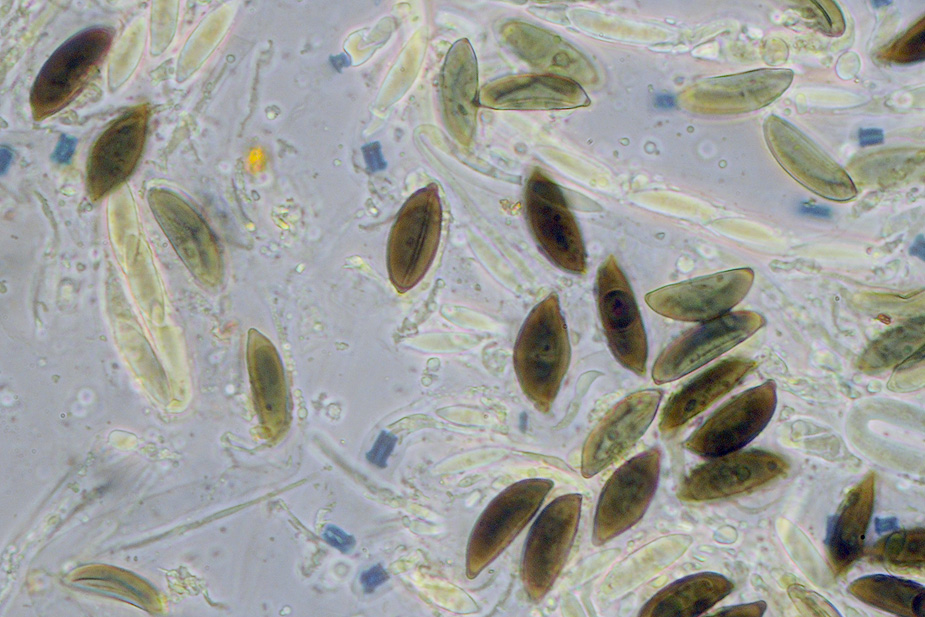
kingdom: Fungi
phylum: Ascomycota
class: Sordariomycetes
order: Xylariales
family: Xylariaceae
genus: Rosellinia
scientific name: Rosellinia marcucciana
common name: måtteløs kulkaviar
